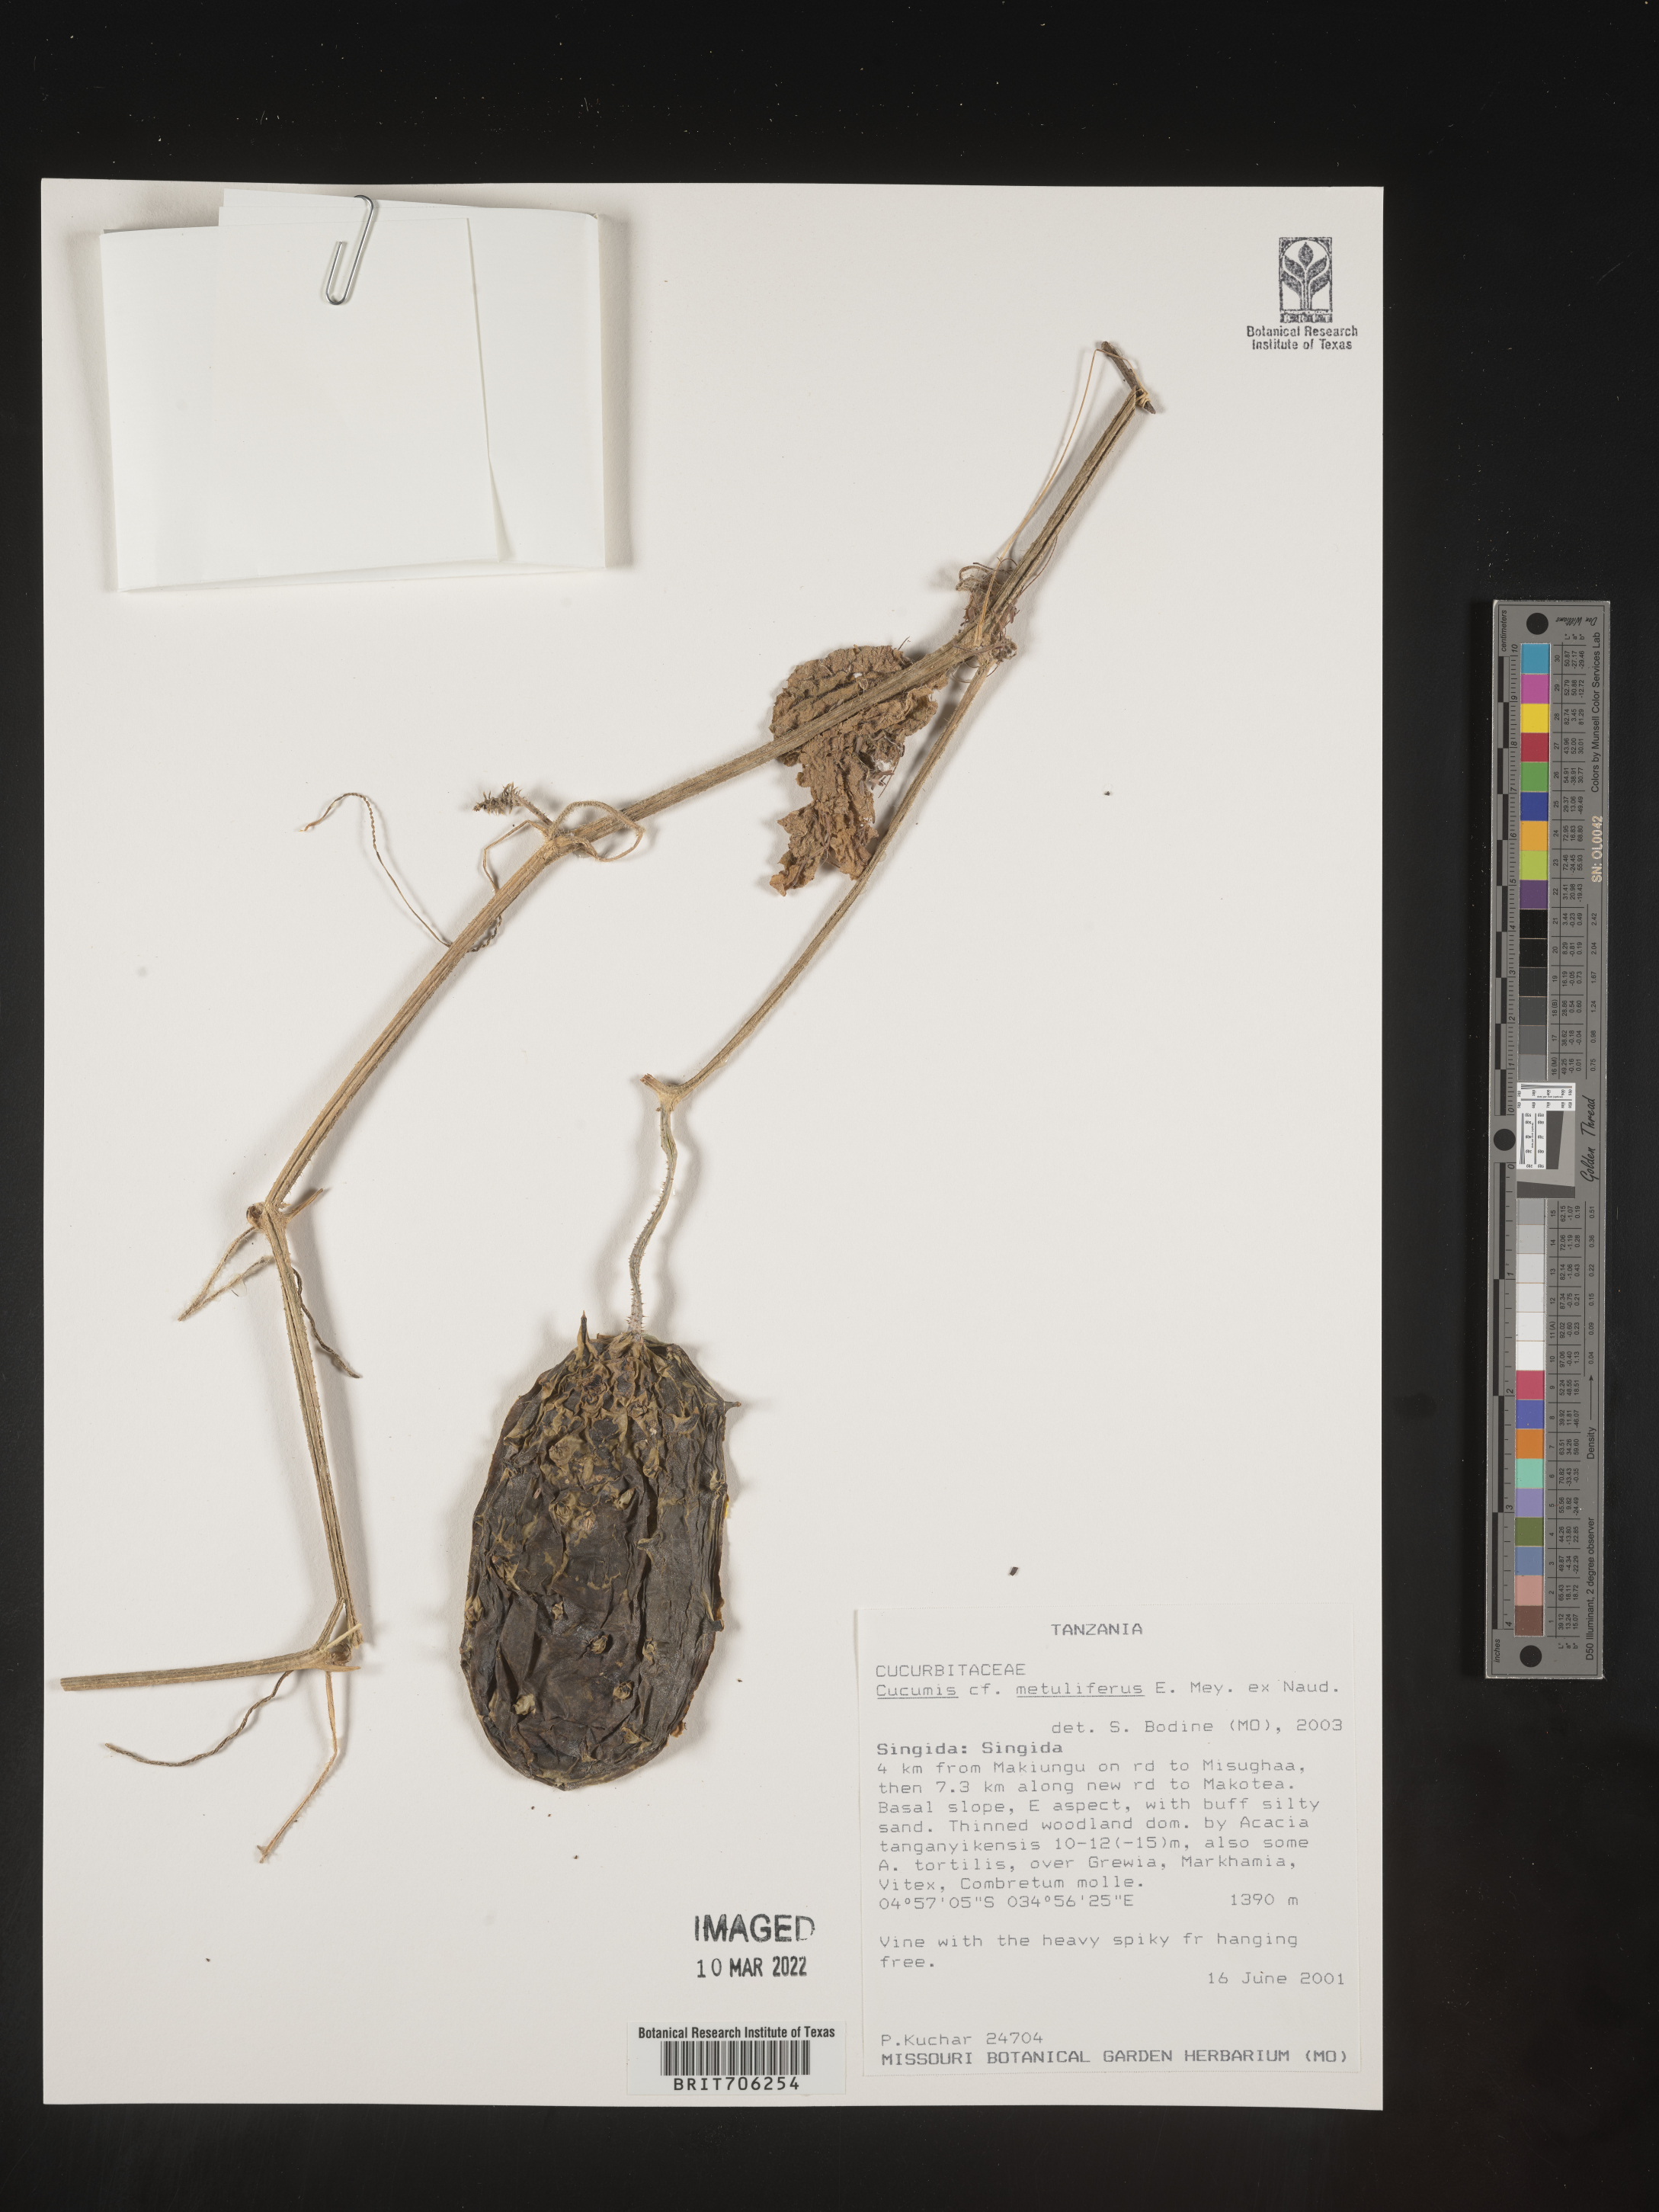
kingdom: Plantae
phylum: Tracheophyta
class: Magnoliopsida
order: Cucurbitales
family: Cucurbitaceae
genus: Cucumis
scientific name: Cucumis
